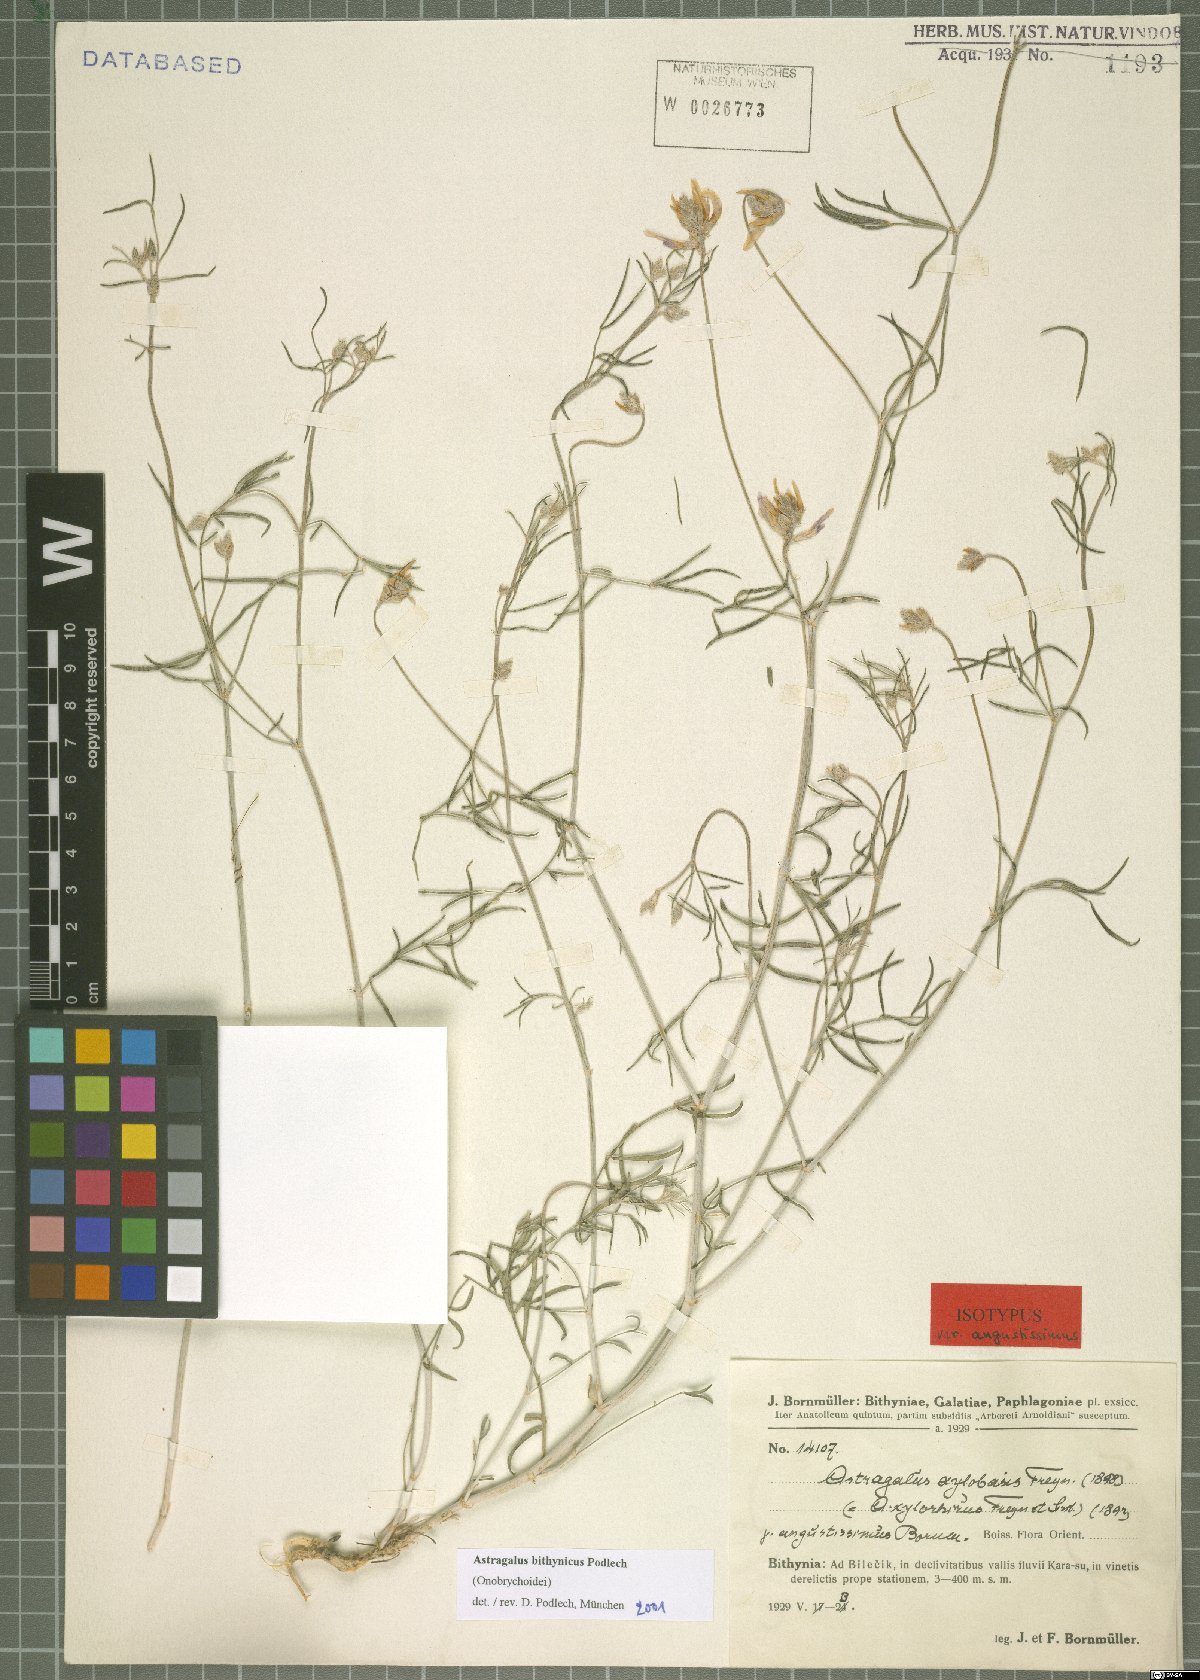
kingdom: Plantae
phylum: Tracheophyta
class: Magnoliopsida
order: Fabales
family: Fabaceae
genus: Astragalus
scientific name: Astragalus aduncus
